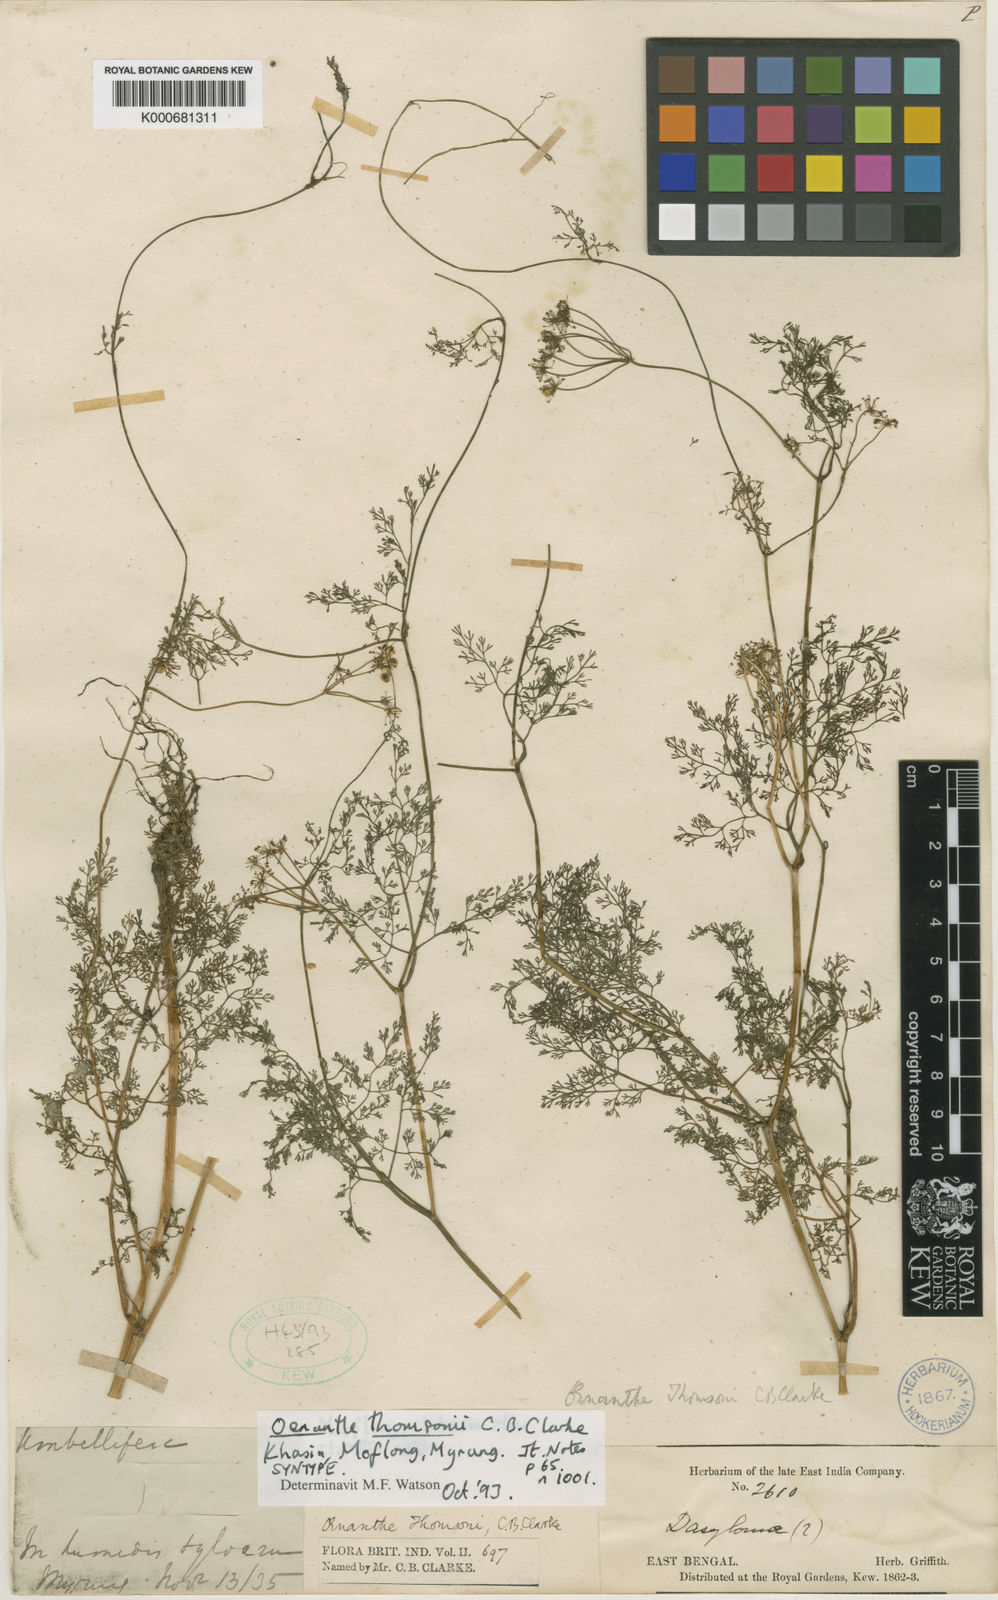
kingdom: Plantae
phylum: Tracheophyta
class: Magnoliopsida
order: Apiales
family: Apiaceae
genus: Oenanthe
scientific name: Oenanthe thomsonii
